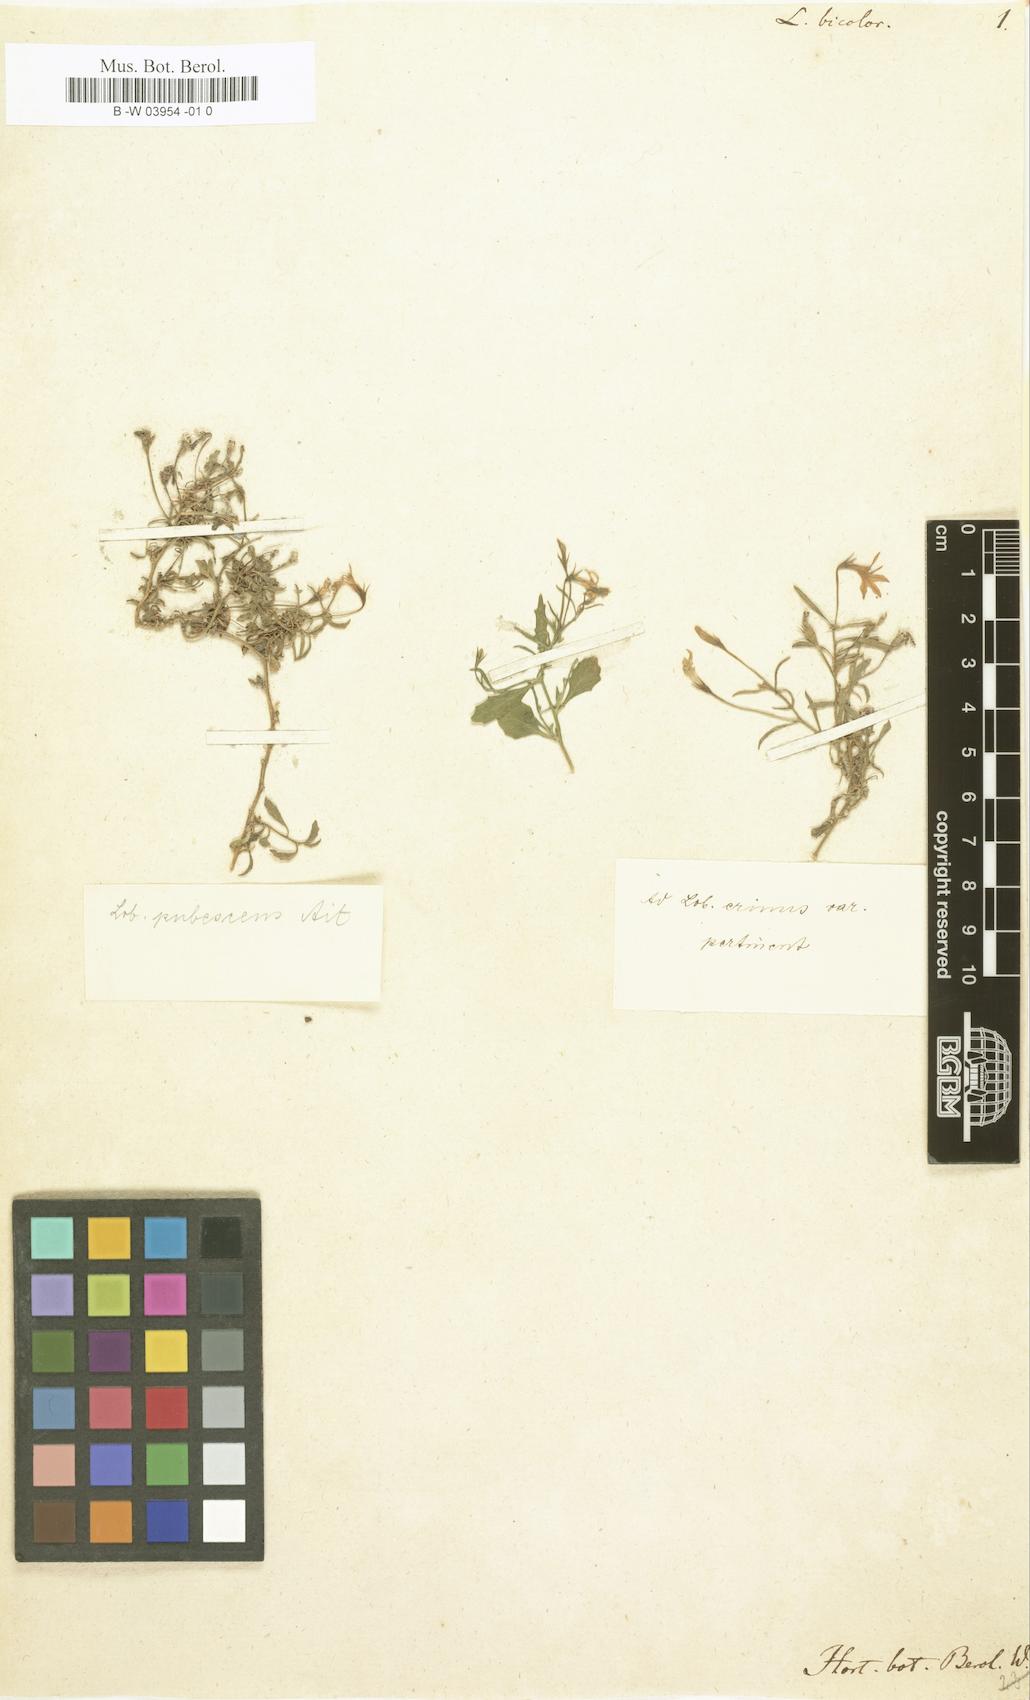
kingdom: Plantae
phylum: Tracheophyta
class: Magnoliopsida
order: Asterales
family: Campanulaceae
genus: Lobelia
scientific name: Lobelia erinus
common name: Edging lobelia
